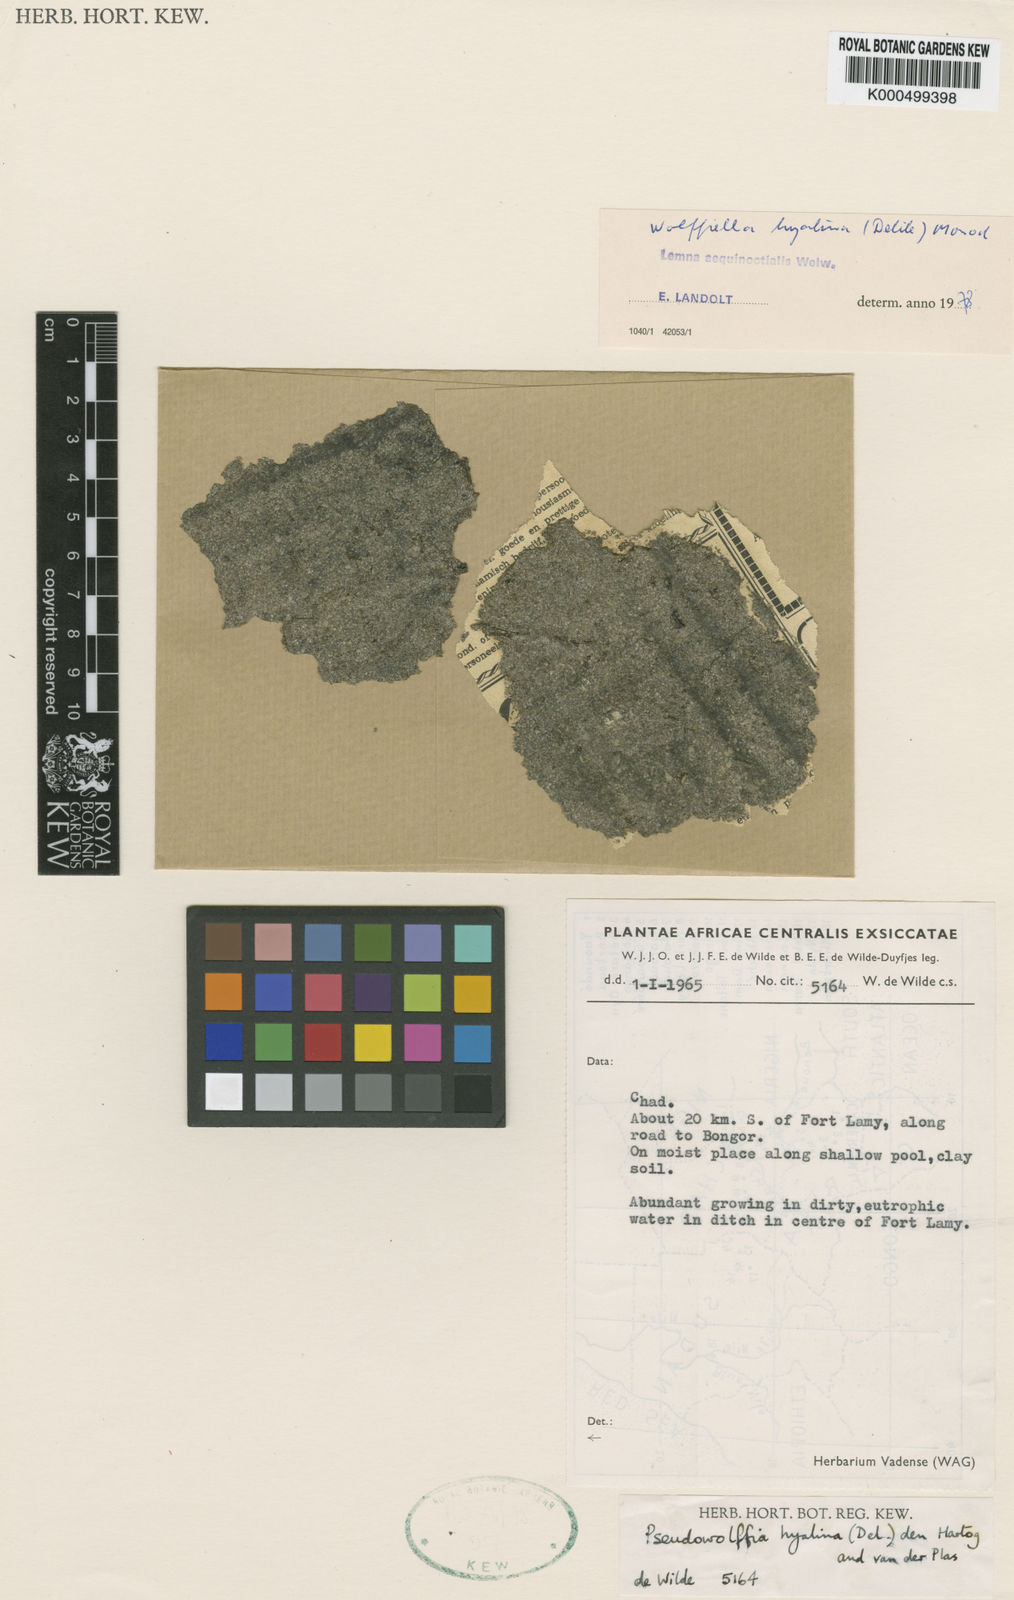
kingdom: Plantae
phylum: Tracheophyta
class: Liliopsida
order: Alismatales
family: Araceae
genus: Wolffiella
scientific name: Wolffiella hyalina
